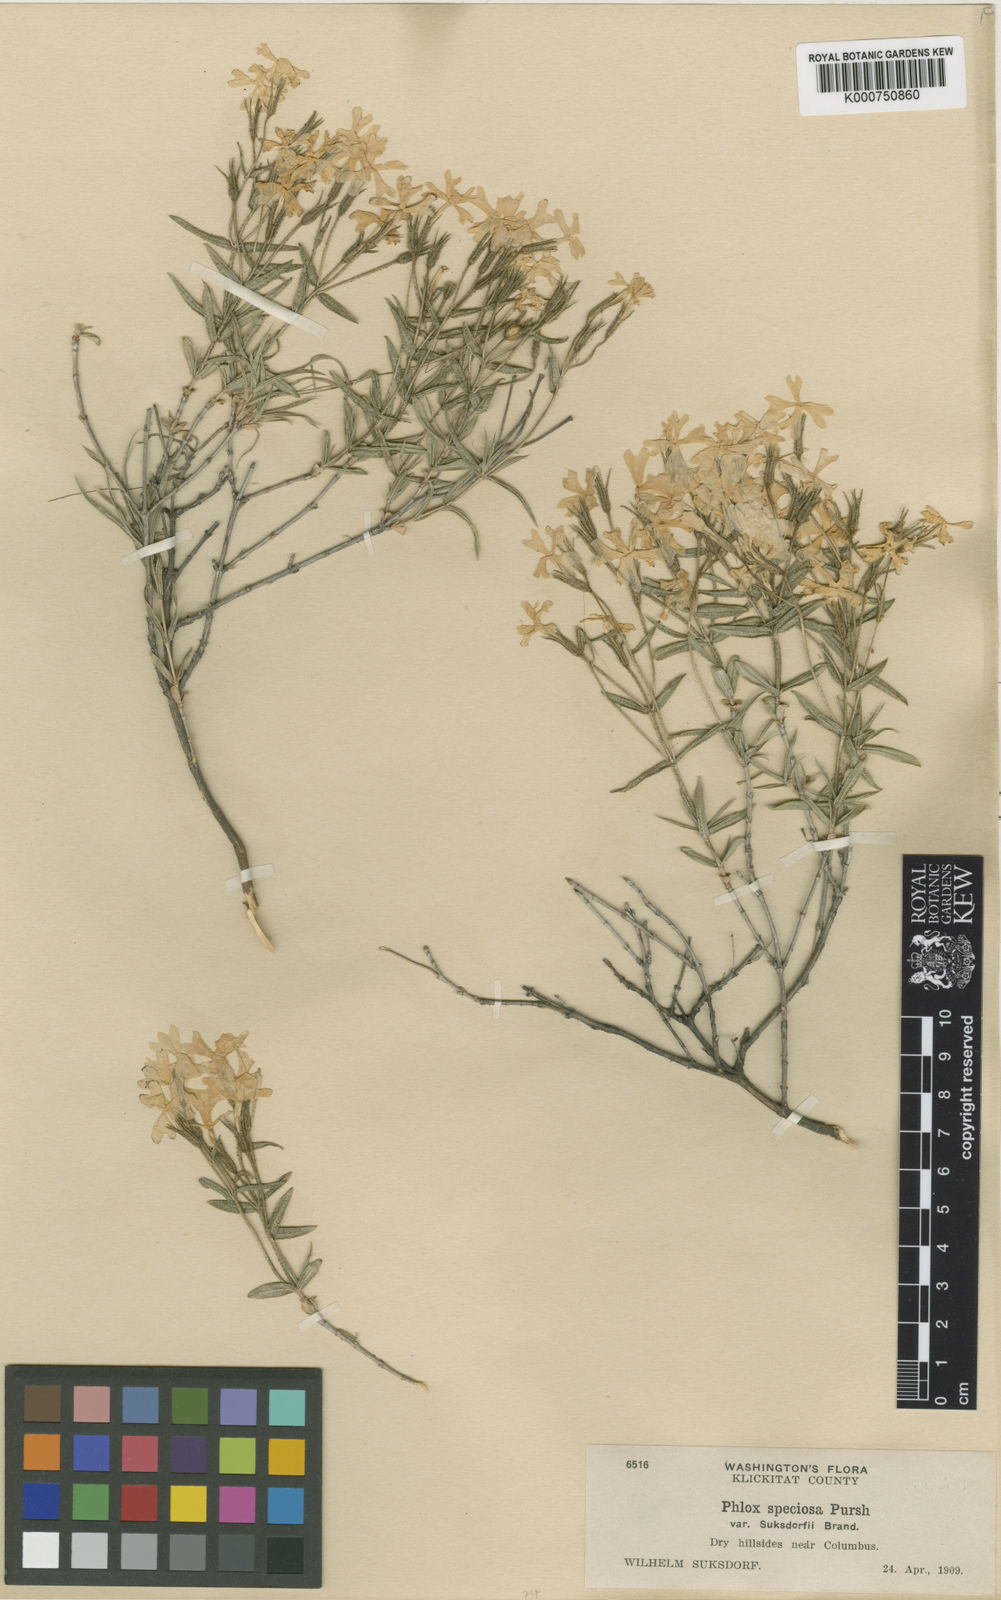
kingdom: Plantae
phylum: Tracheophyta
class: Magnoliopsida
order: Ericales
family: Polemoniaceae
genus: Phlox
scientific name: Phlox speciosa
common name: Bush phlox
